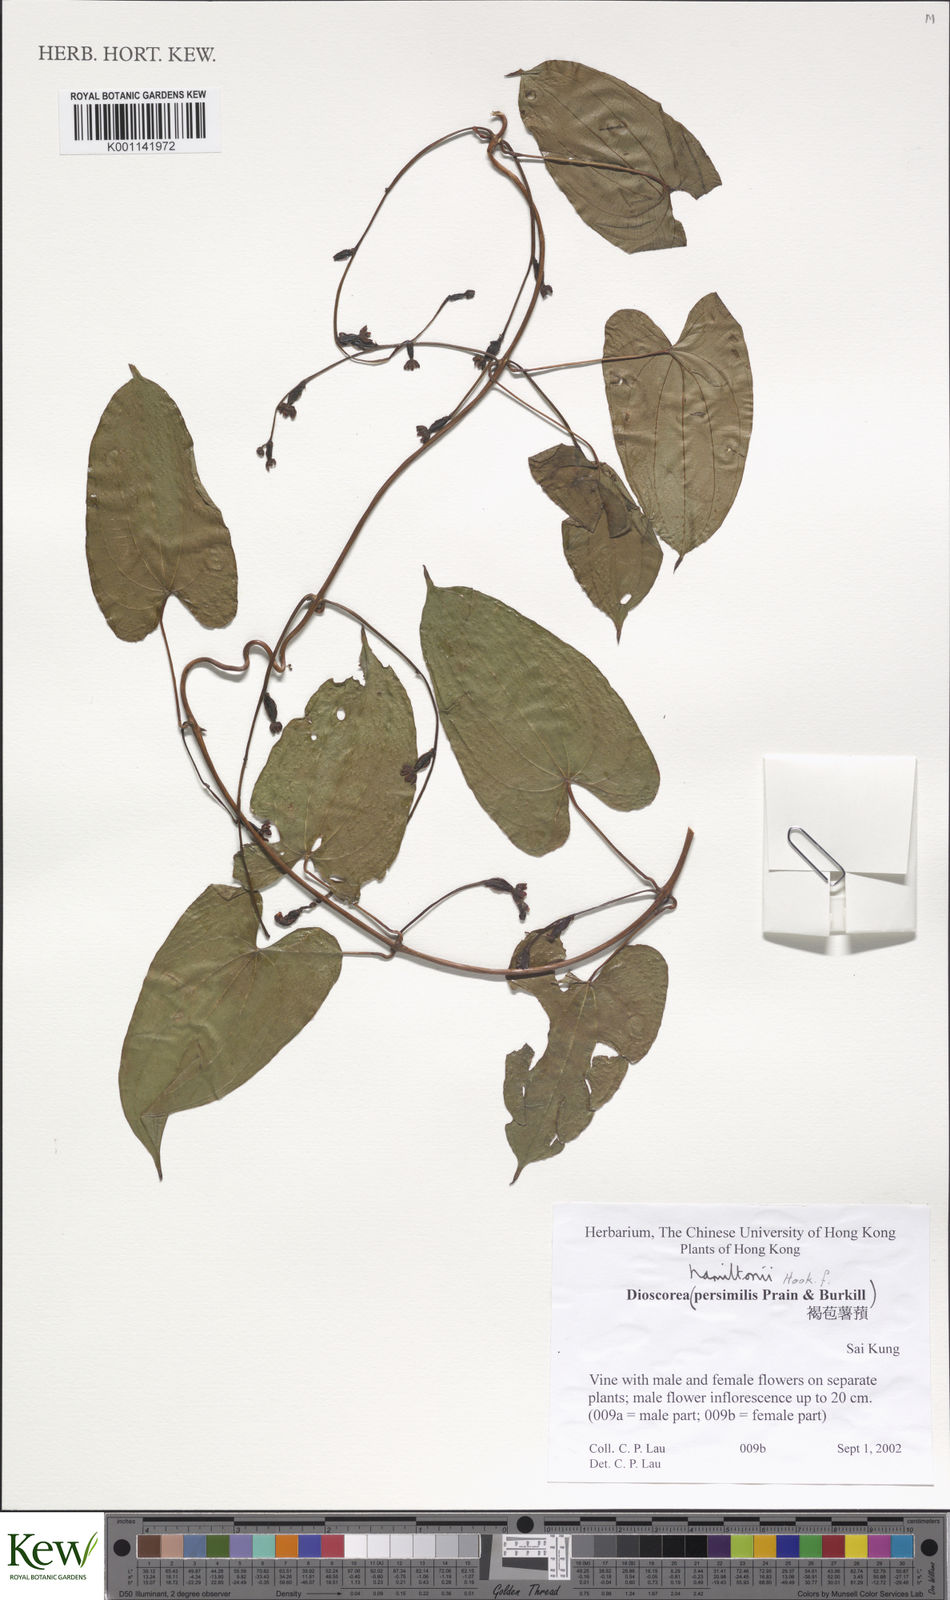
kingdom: Plantae
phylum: Tracheophyta
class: Liliopsida
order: Dioscoreales
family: Dioscoreaceae
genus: Dioscorea
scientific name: Dioscorea hamiltonii
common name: Mountain yam
